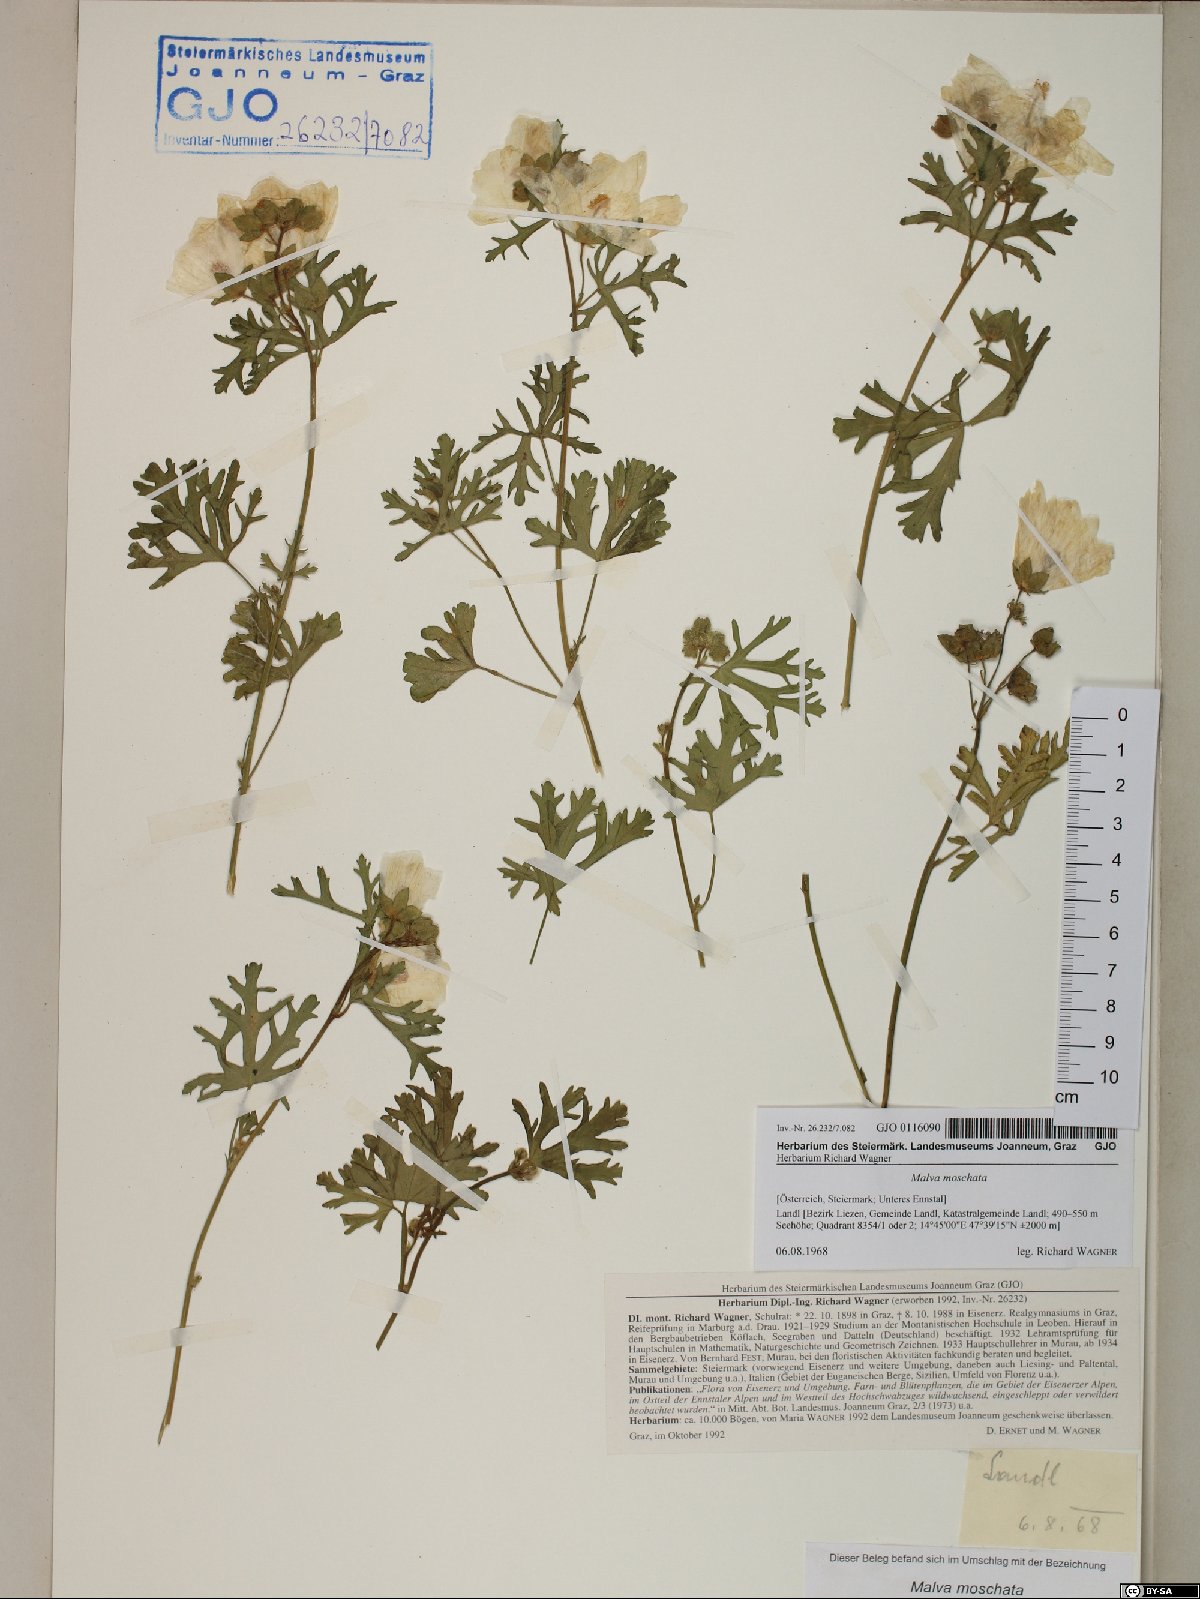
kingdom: Plantae
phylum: Tracheophyta
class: Magnoliopsida
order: Malvales
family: Malvaceae
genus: Malva
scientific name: Malva moschata
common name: Musk mallow
